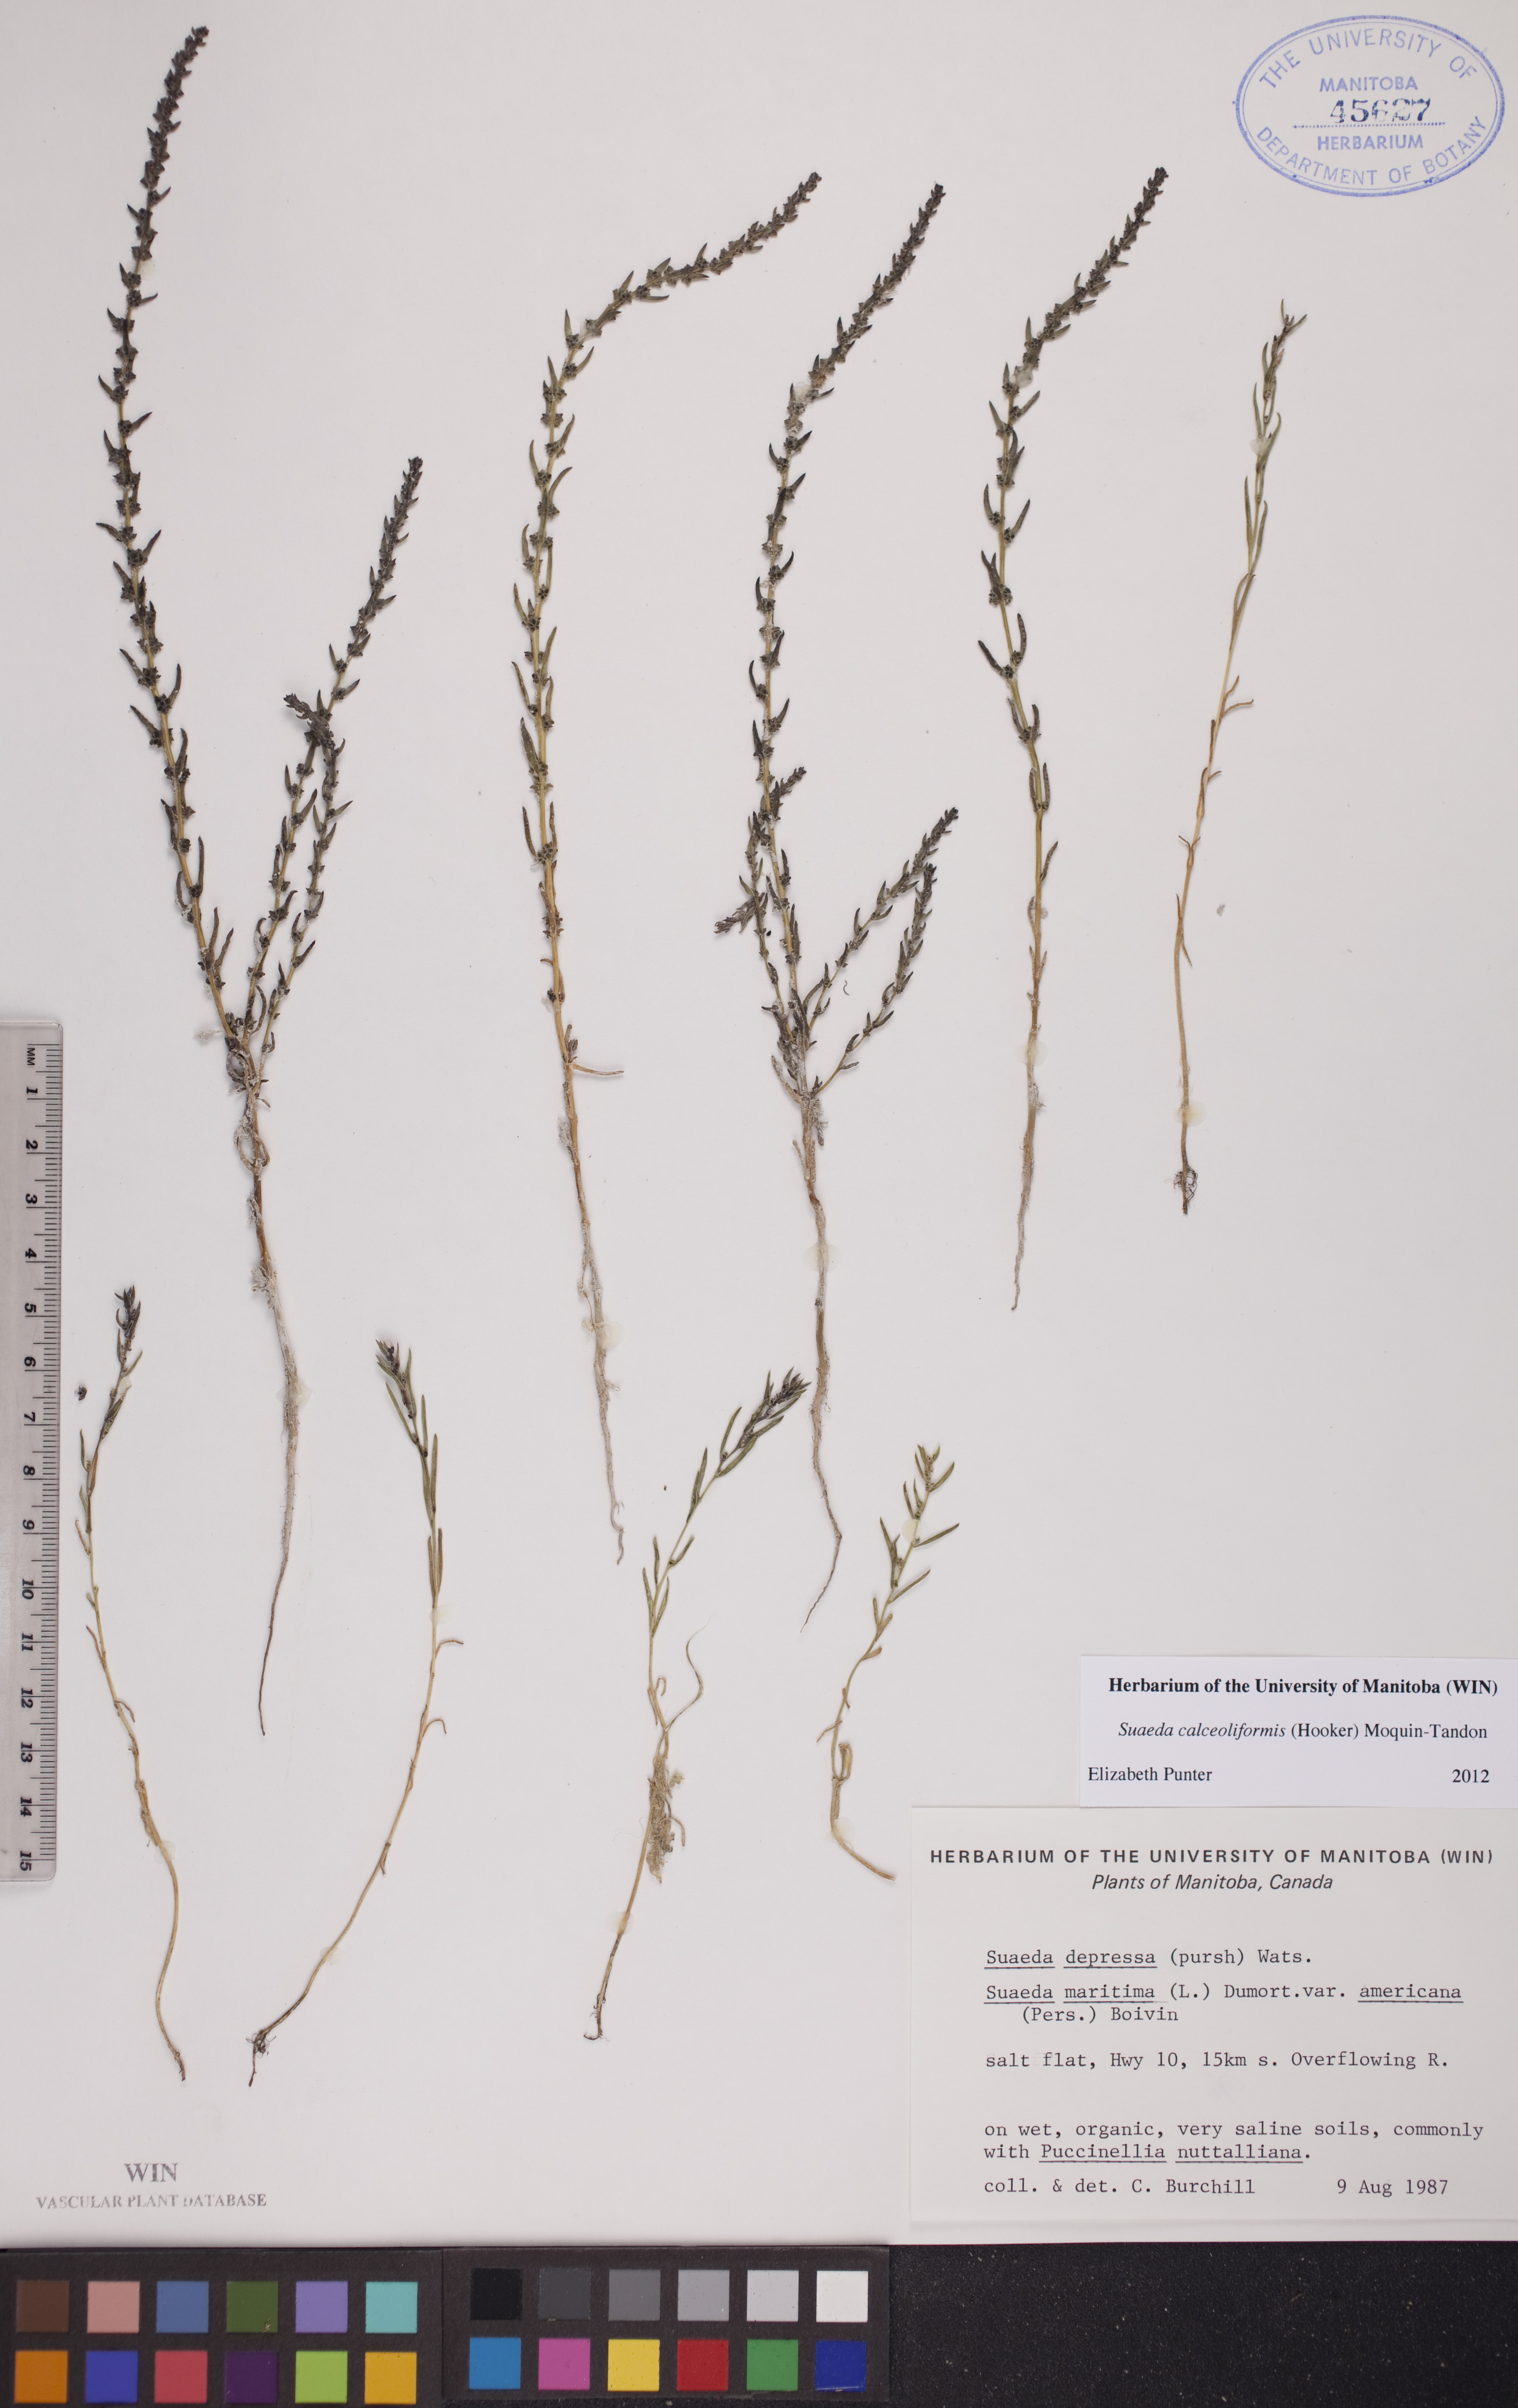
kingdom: Plantae
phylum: Tracheophyta
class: Magnoliopsida
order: Caryophyllales
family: Amaranthaceae
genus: Suaeda
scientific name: Suaeda calceoliformis
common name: Pursh's seepweed
